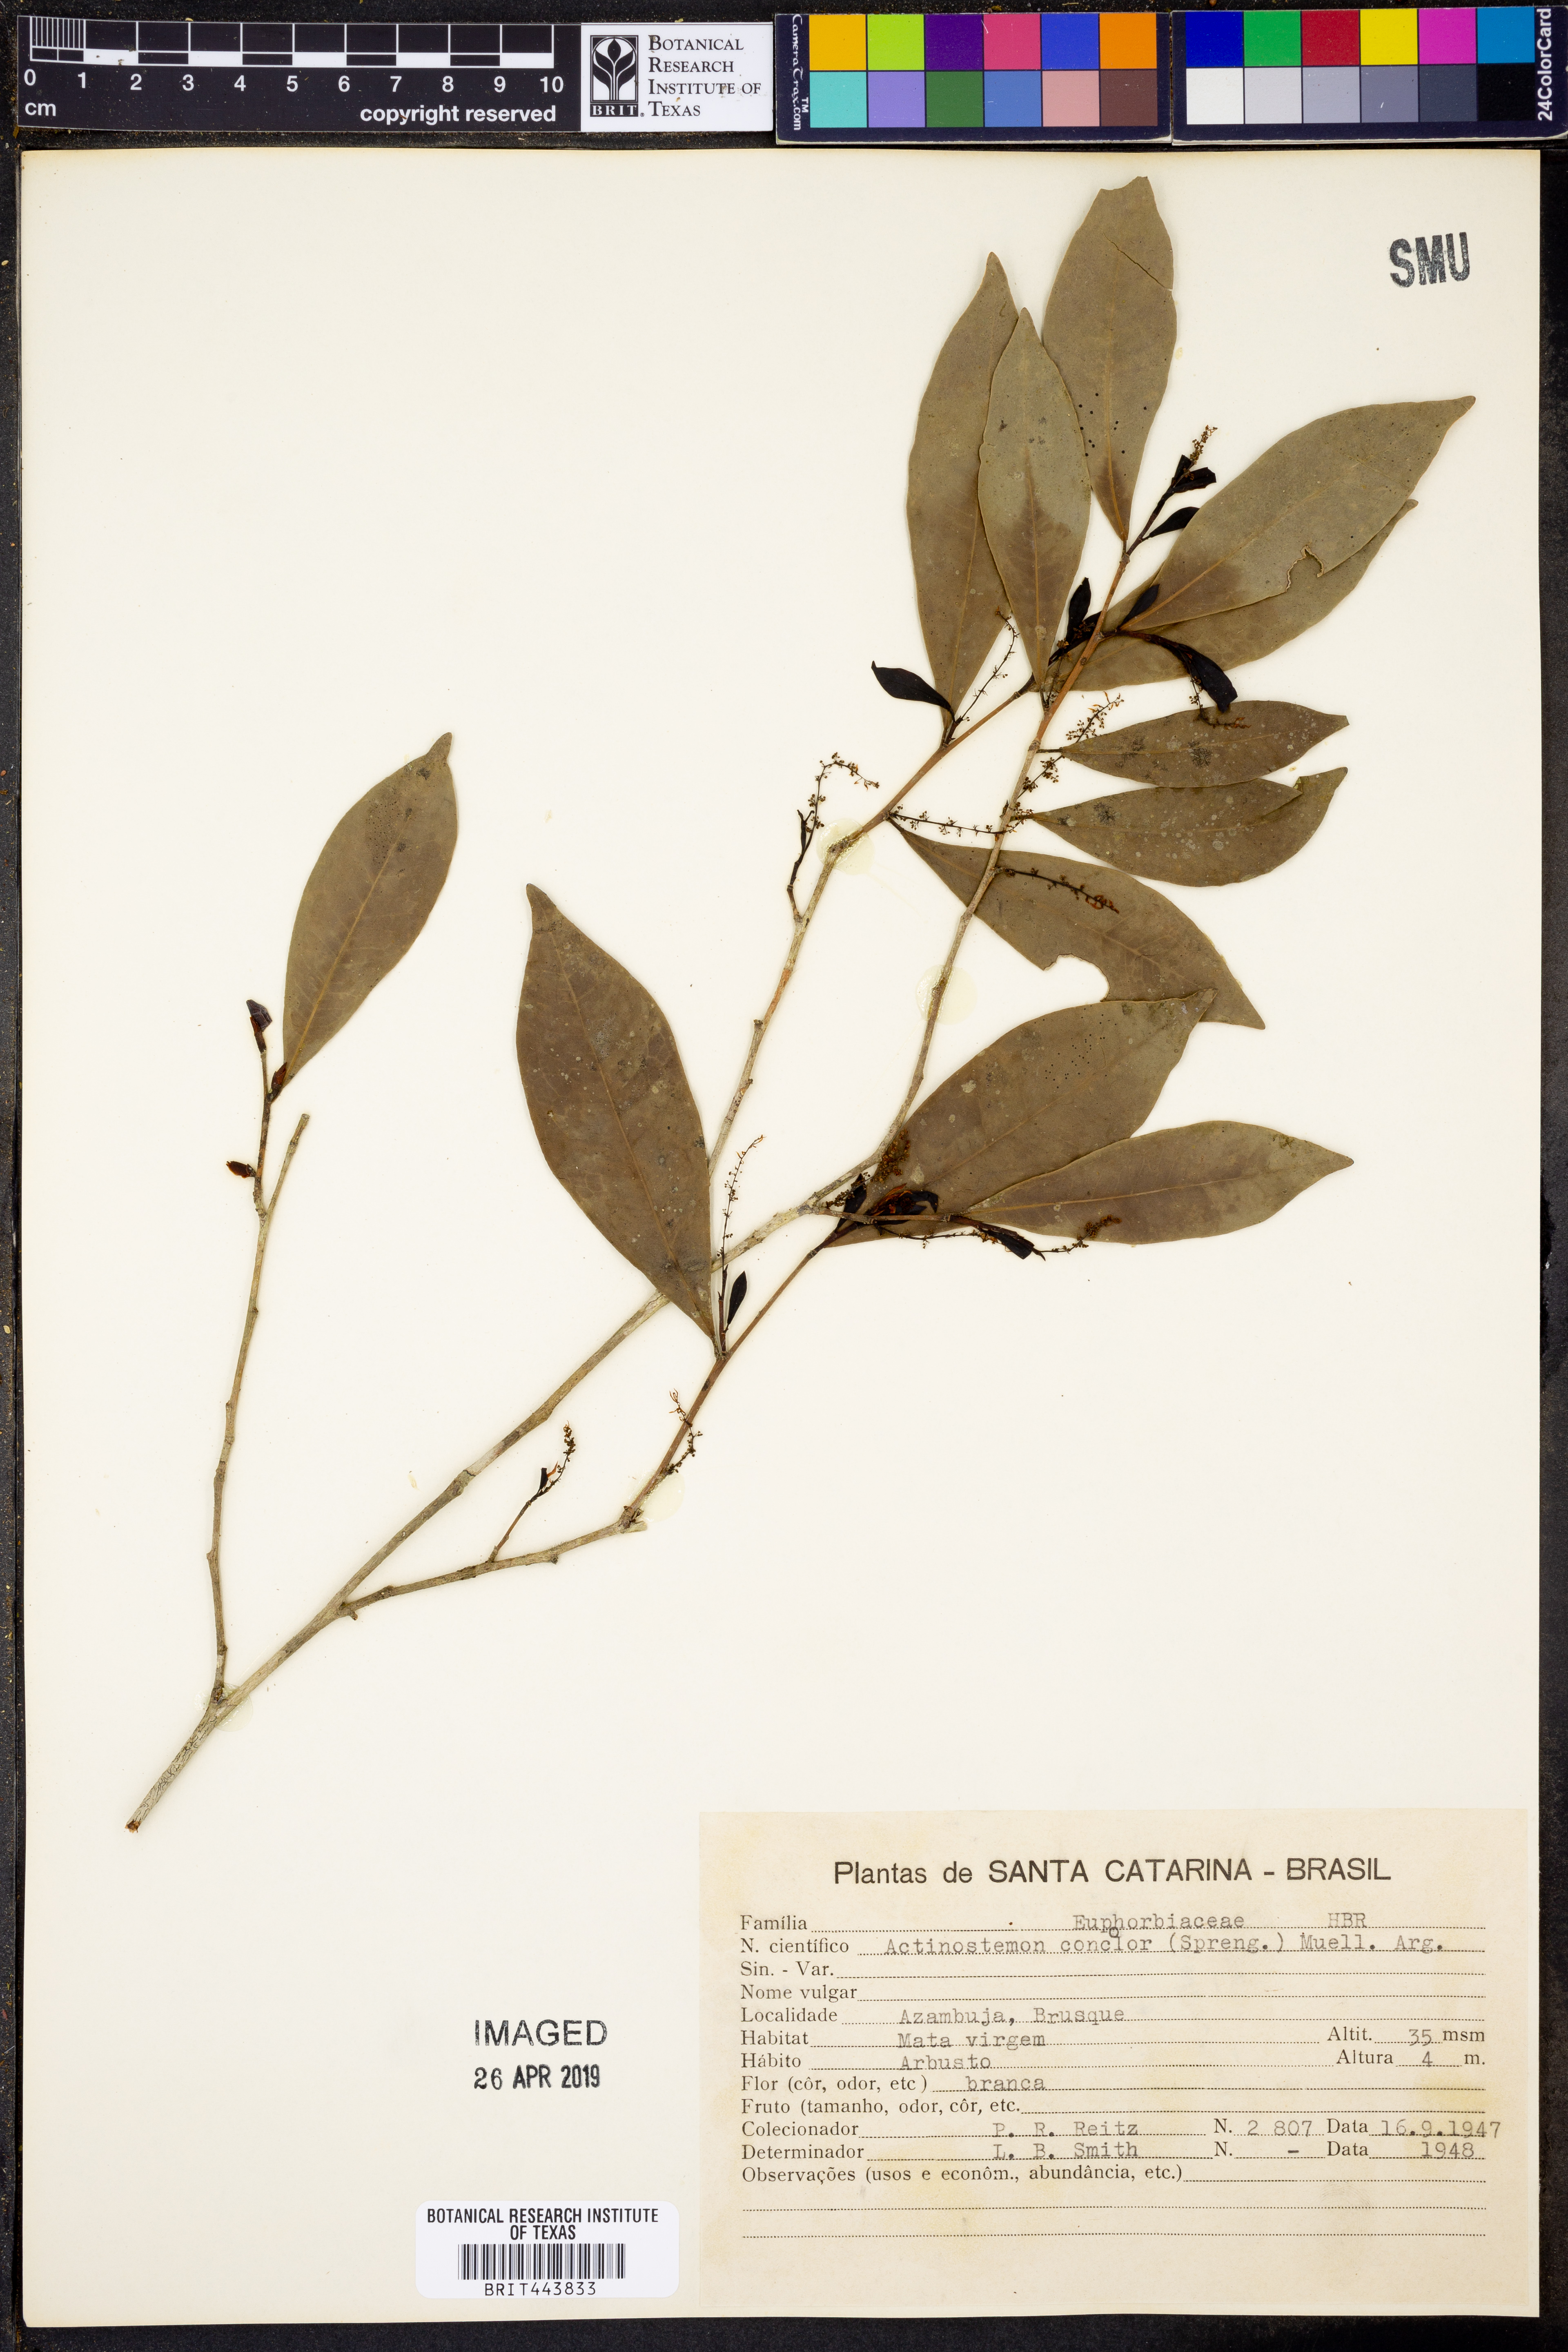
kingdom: Plantae
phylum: Tracheophyta
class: Magnoliopsida
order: Malpighiales
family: Euphorbiaceae
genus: Actinostemon
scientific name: Actinostemon concolor
